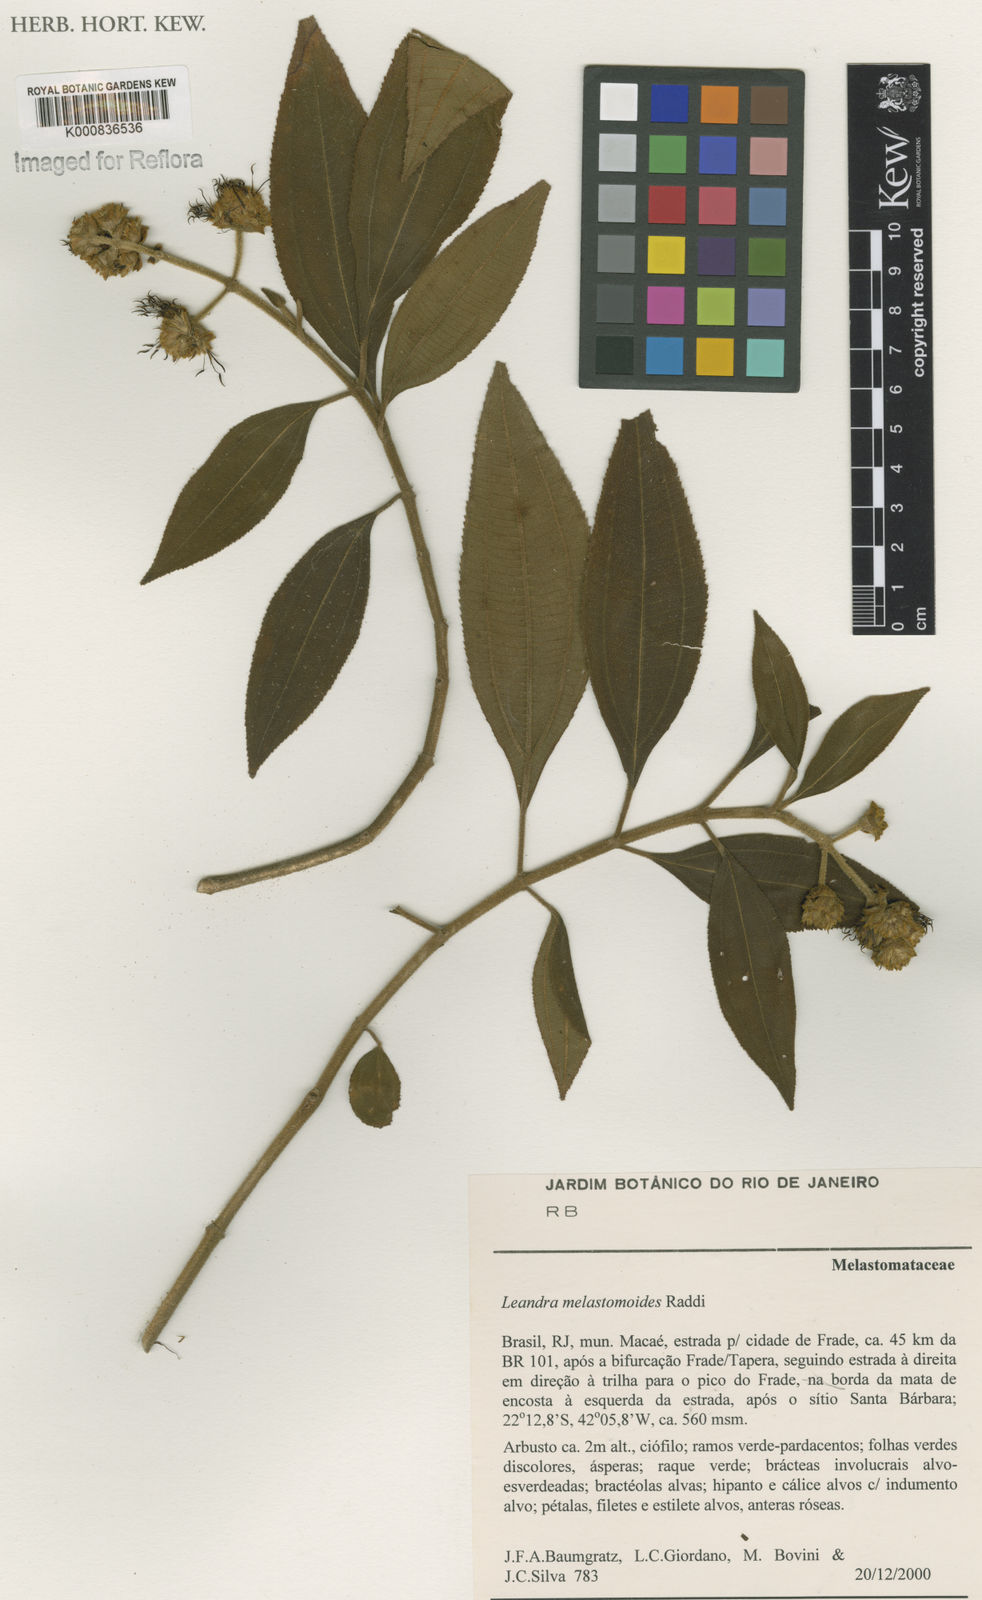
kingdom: Plantae
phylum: Tracheophyta
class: Magnoliopsida
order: Myrtales
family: Melastomataceae
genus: Miconia
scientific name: Miconia melastomoides
